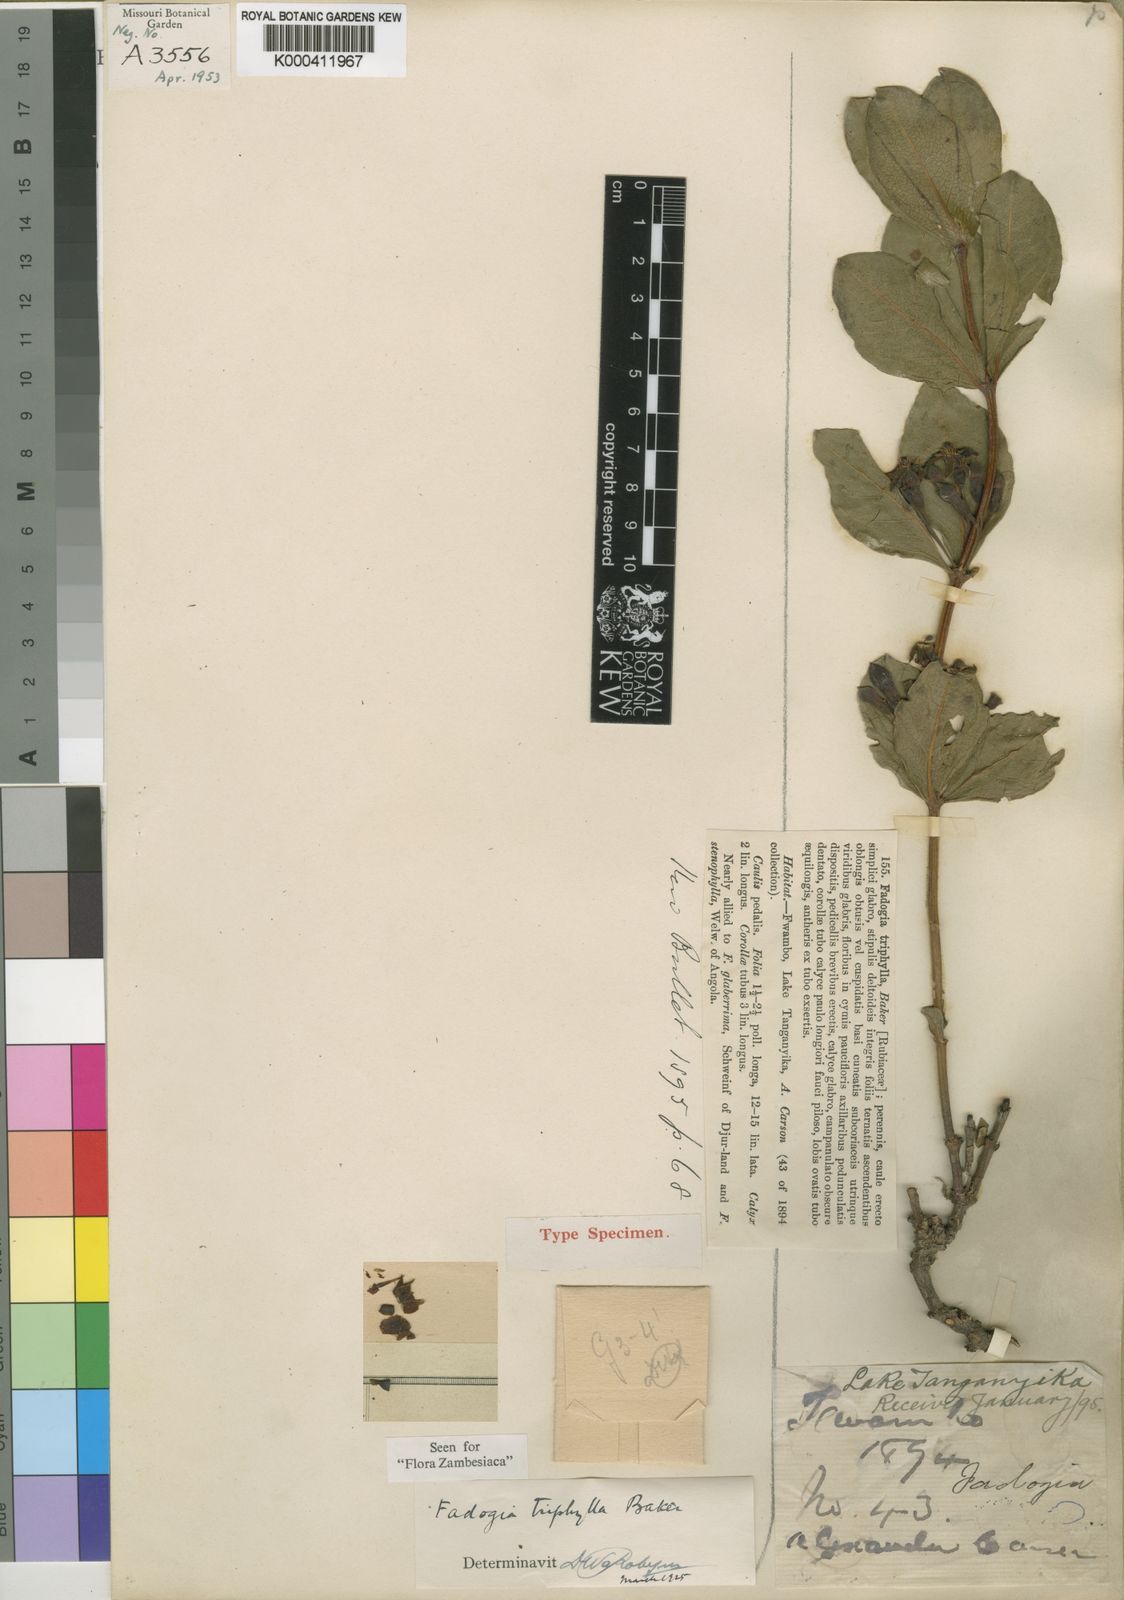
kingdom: Plantae
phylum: Tracheophyta
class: Magnoliopsida
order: Gentianales
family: Rubiaceae
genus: Fadogia
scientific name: Fadogia triphylla
